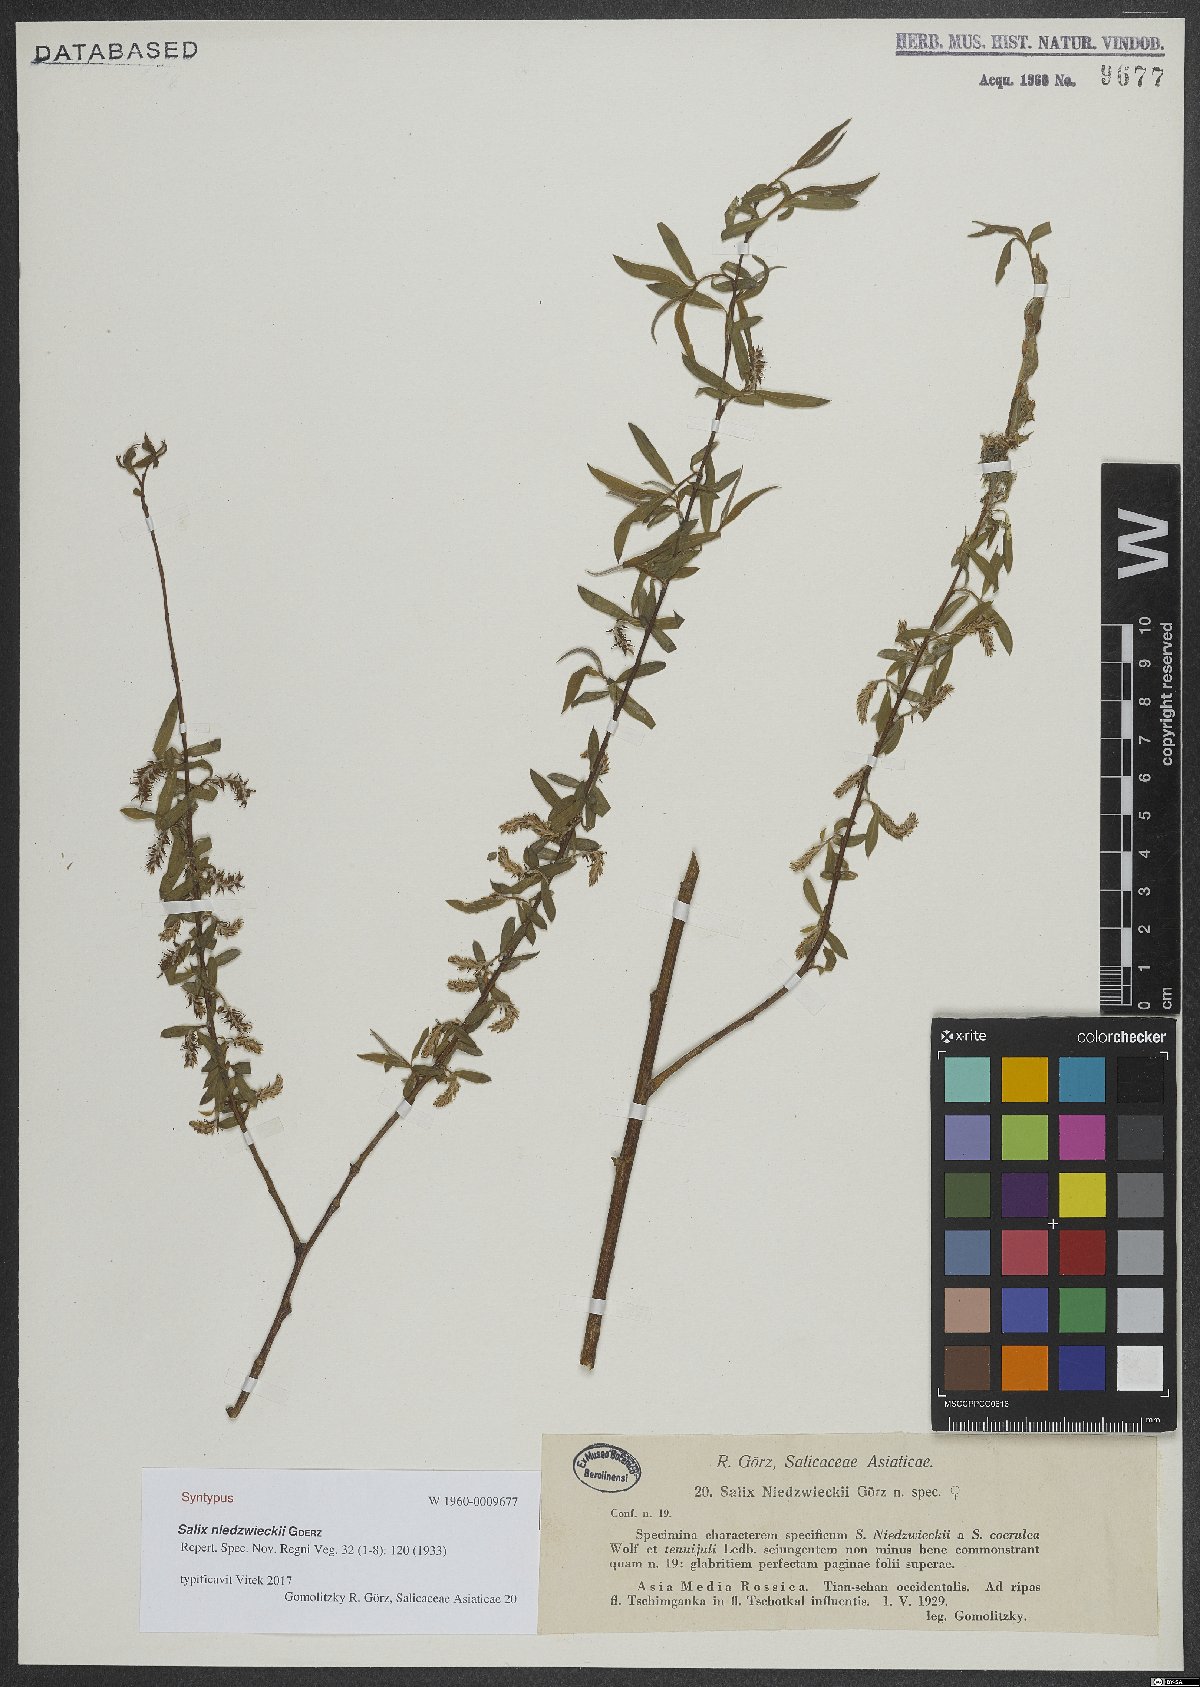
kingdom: Plantae
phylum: Tracheophyta
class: Magnoliopsida
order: Malpighiales
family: Salicaceae
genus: Salix
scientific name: Salix capusii
